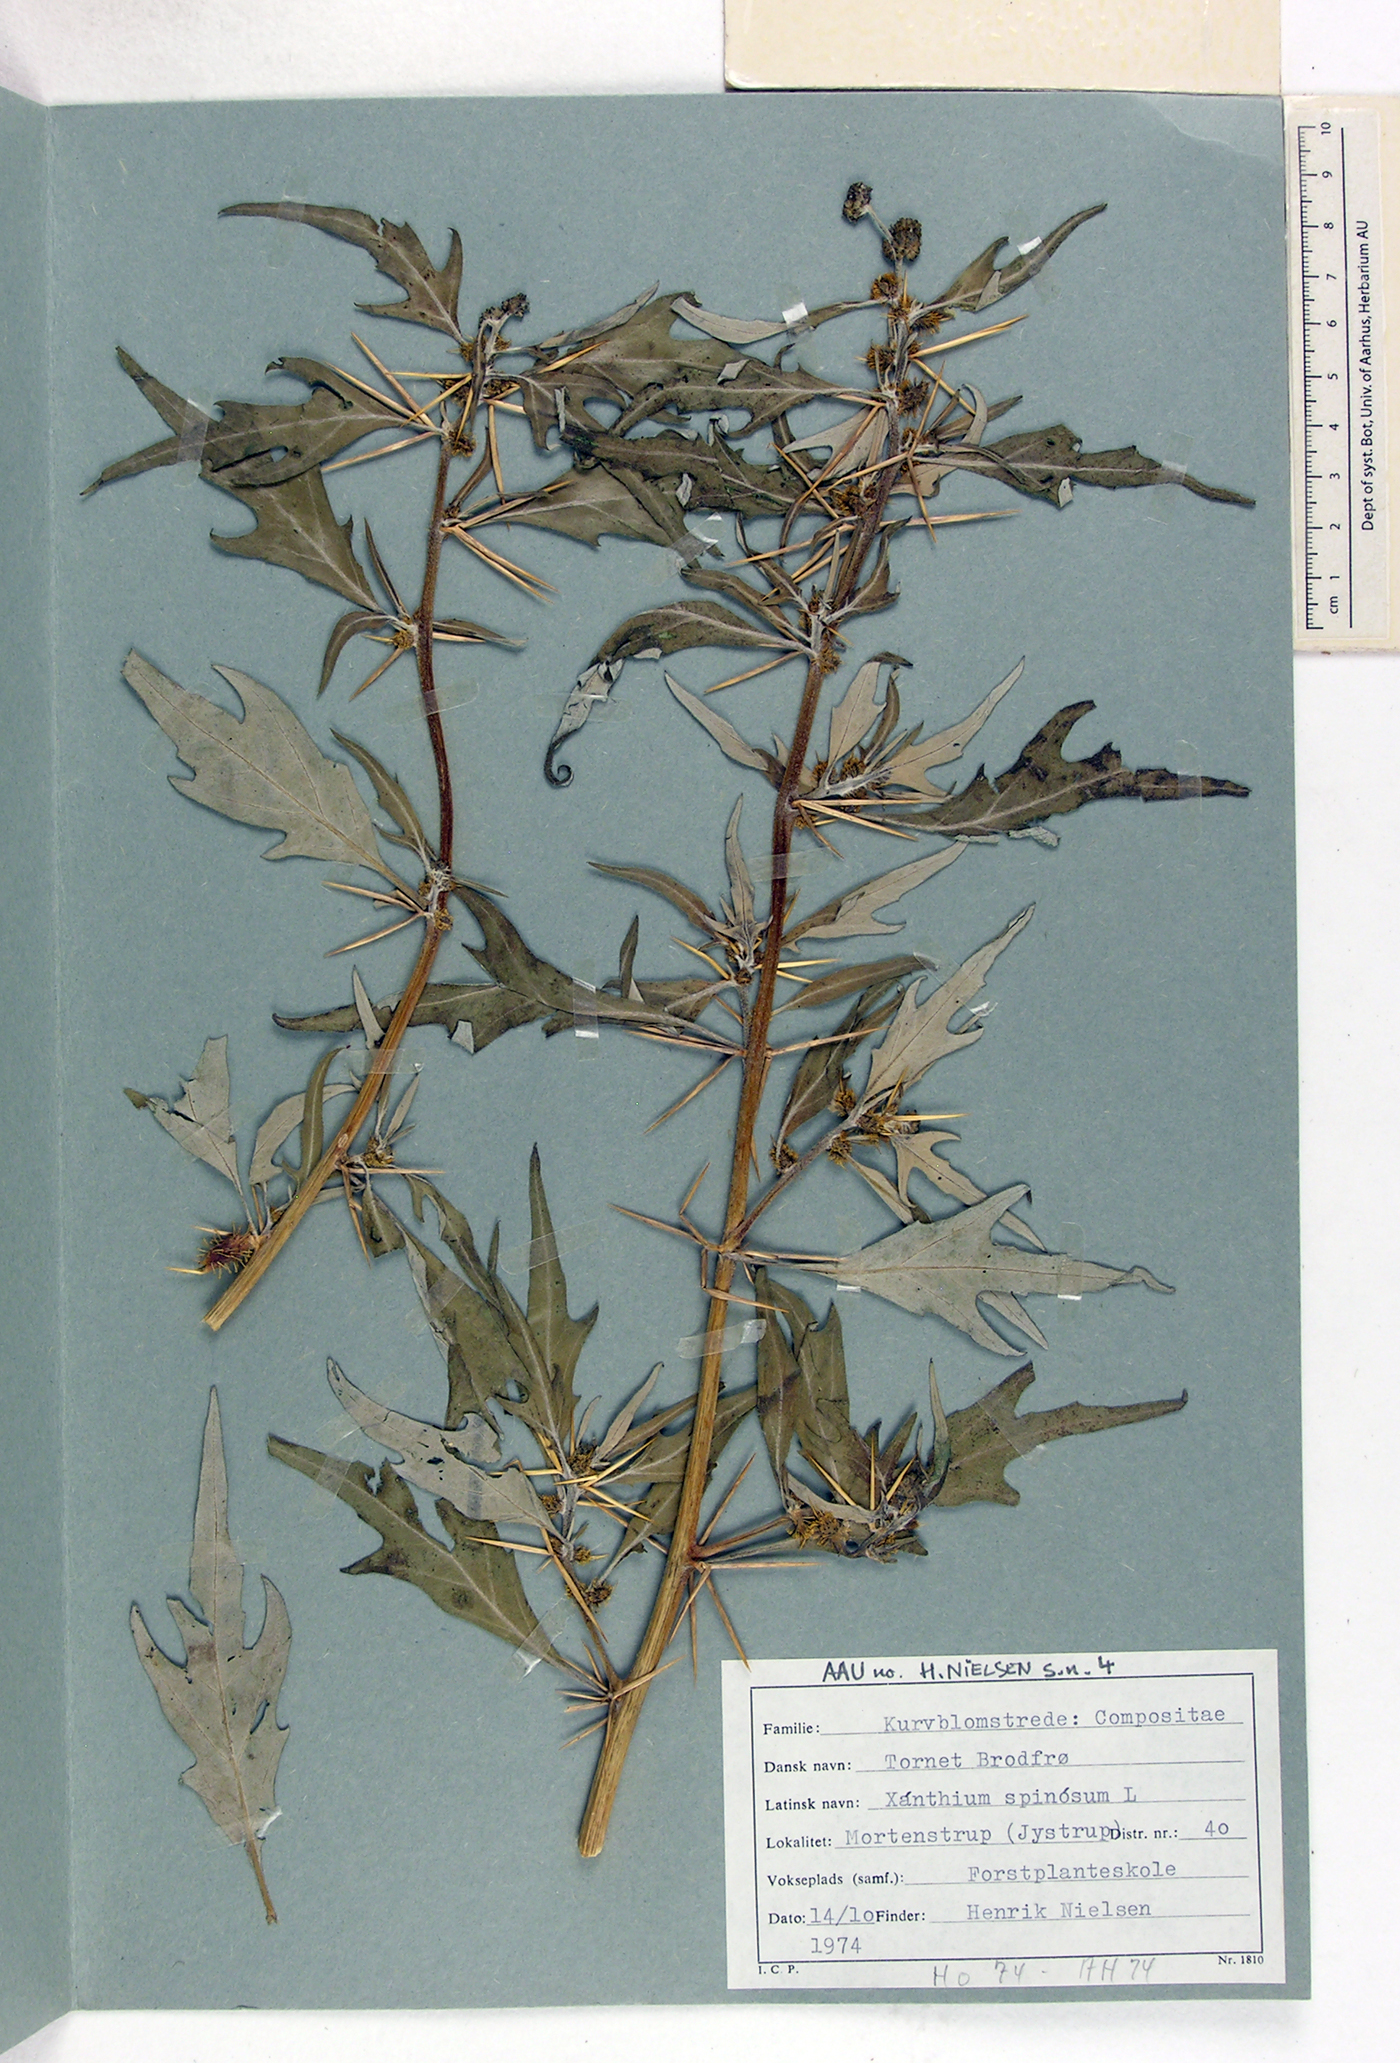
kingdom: Plantae
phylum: Tracheophyta
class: Magnoliopsida
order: Asterales
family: Asteraceae
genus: Xanthium
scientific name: Xanthium spinosum
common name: Spiny cocklebur
